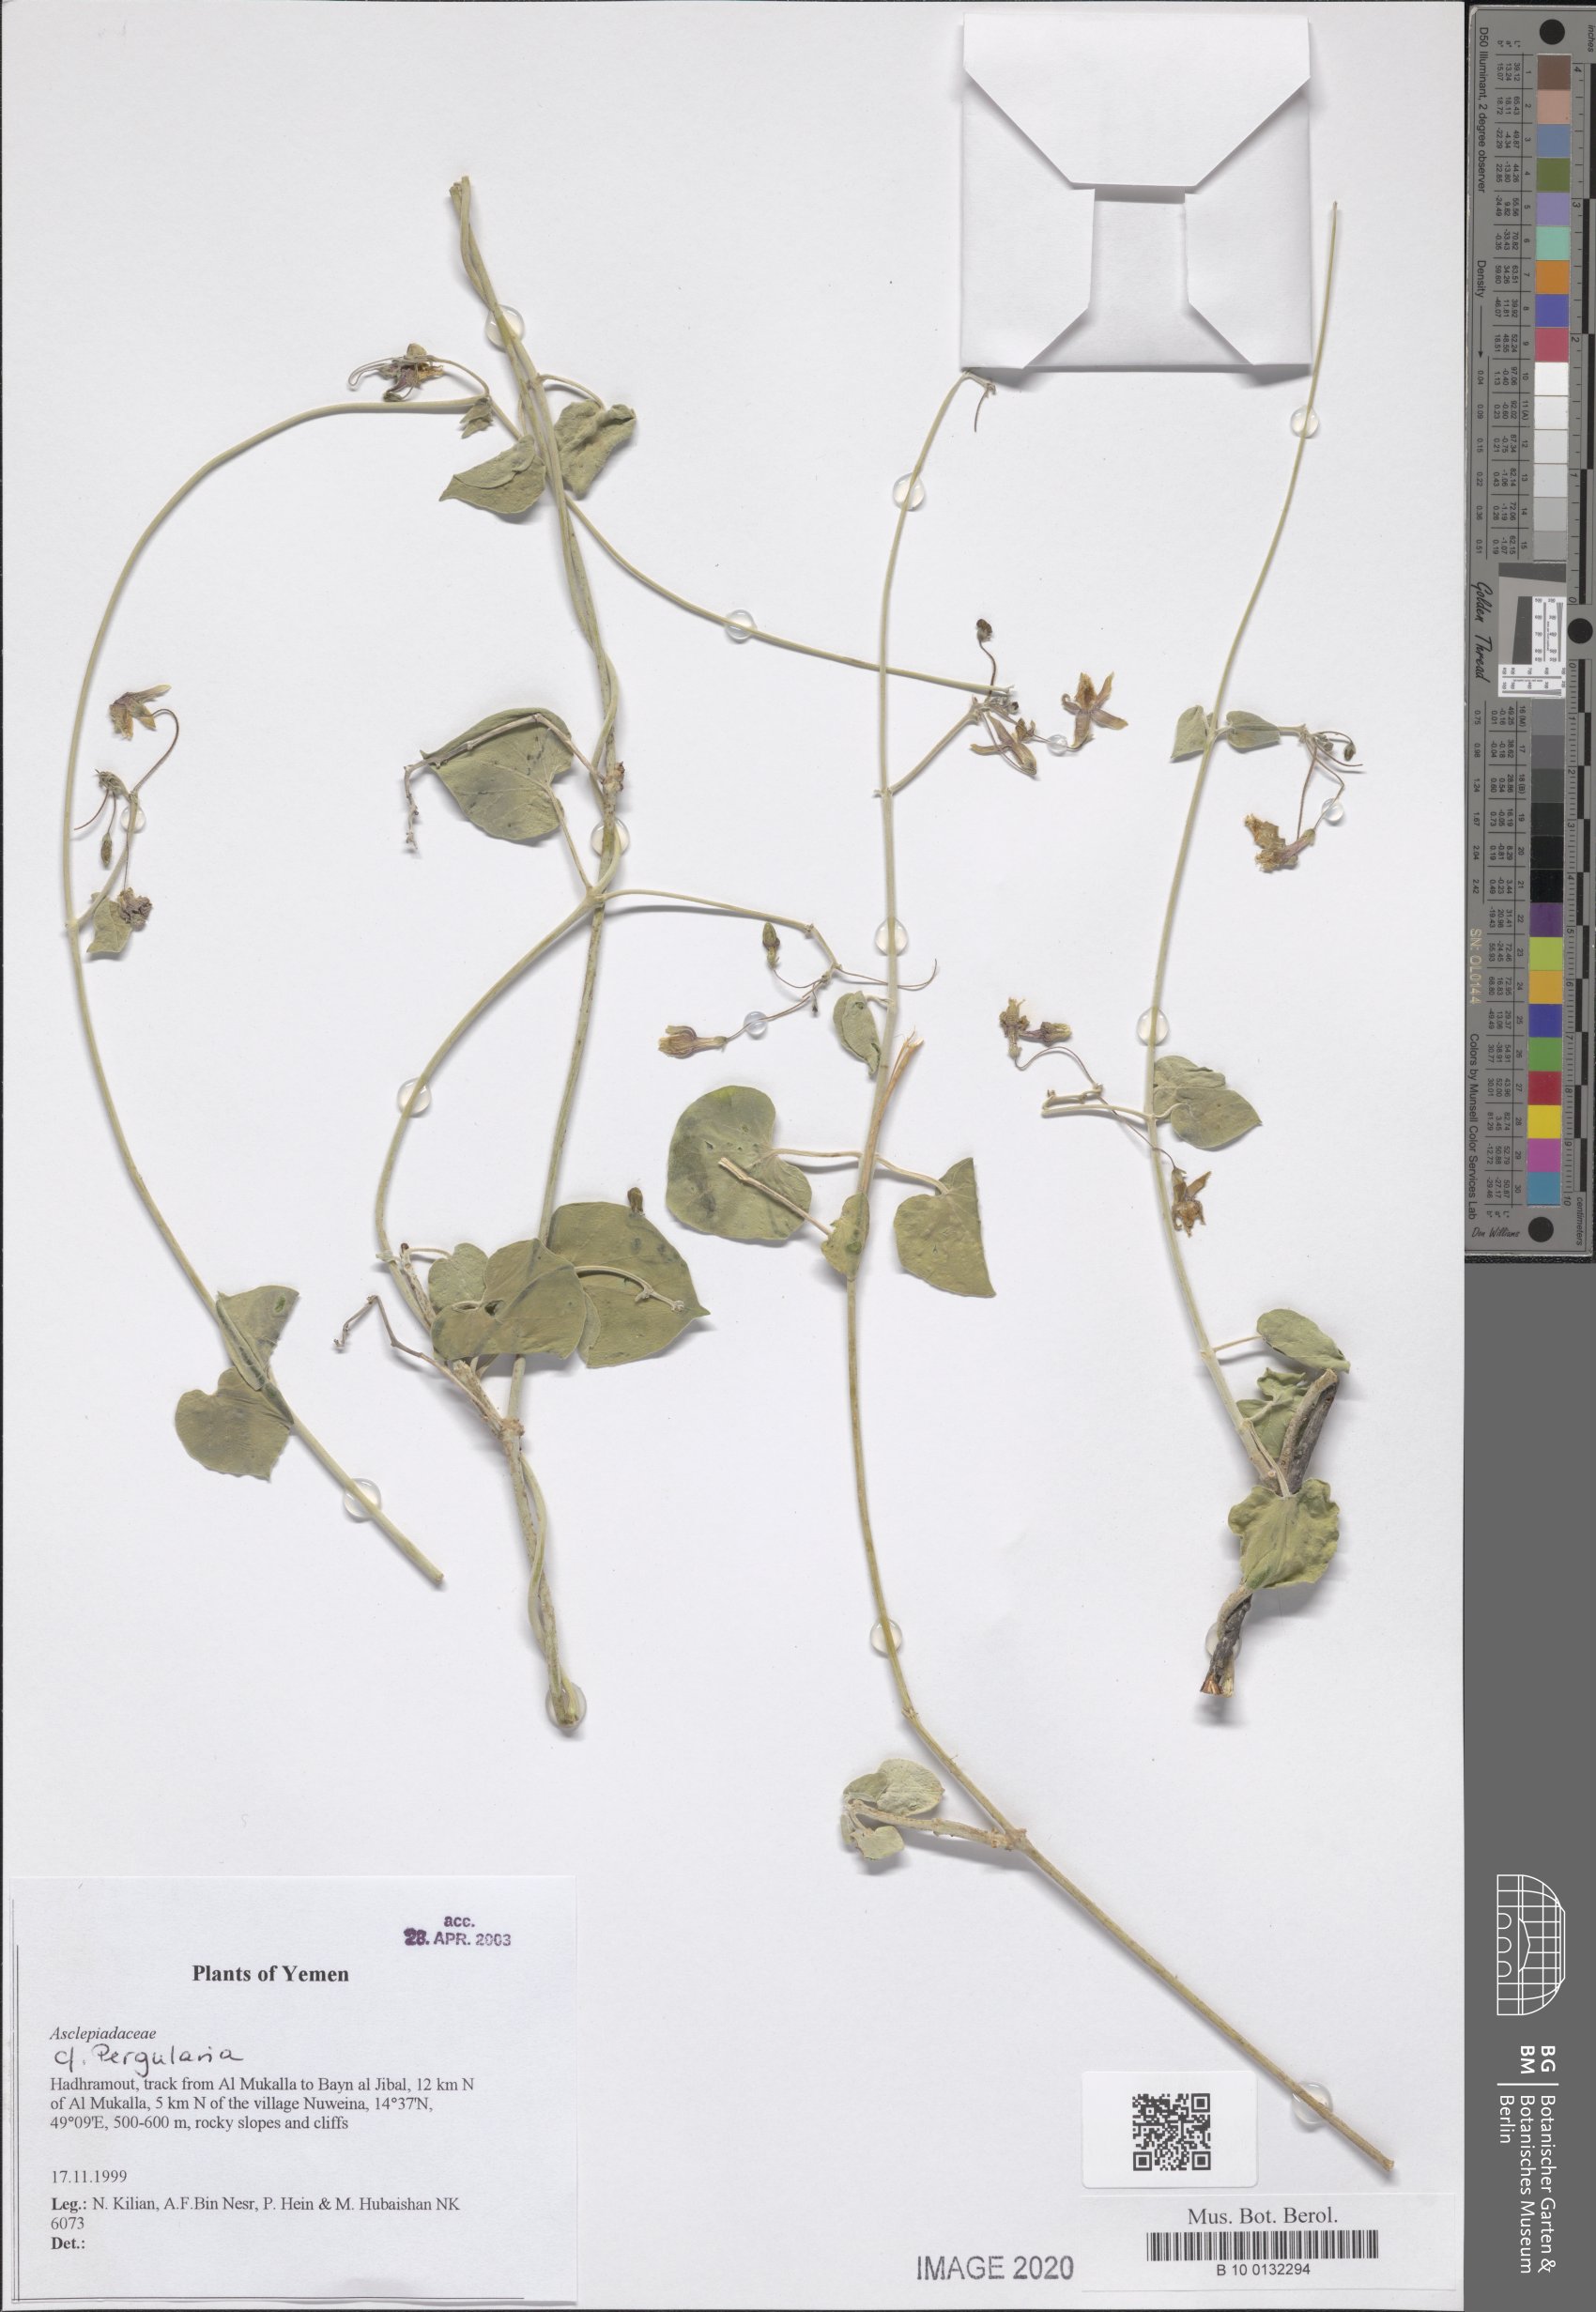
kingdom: Plantae
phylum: Tracheophyta
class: Magnoliopsida
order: Gentianales
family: Apocynaceae
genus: Pergularia
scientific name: Pergularia tomentosa
